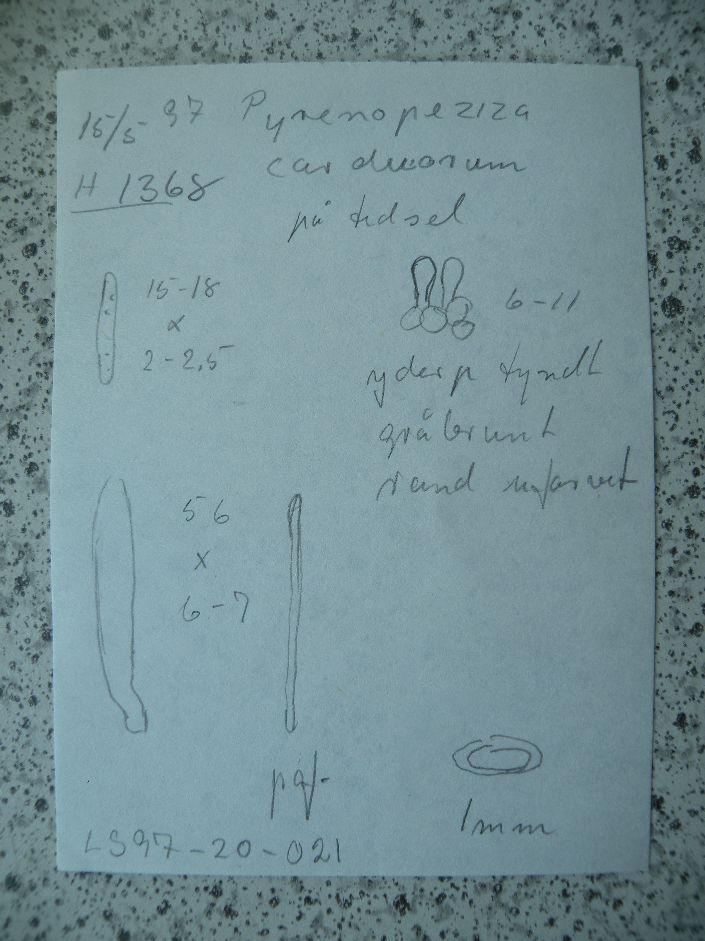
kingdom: Fungi
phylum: Ascomycota
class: Leotiomycetes
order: Helotiales
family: Ploettnerulaceae
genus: Pyrenopeziza
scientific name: Pyrenopeziza carduorum
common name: tidsel-kerneskive
